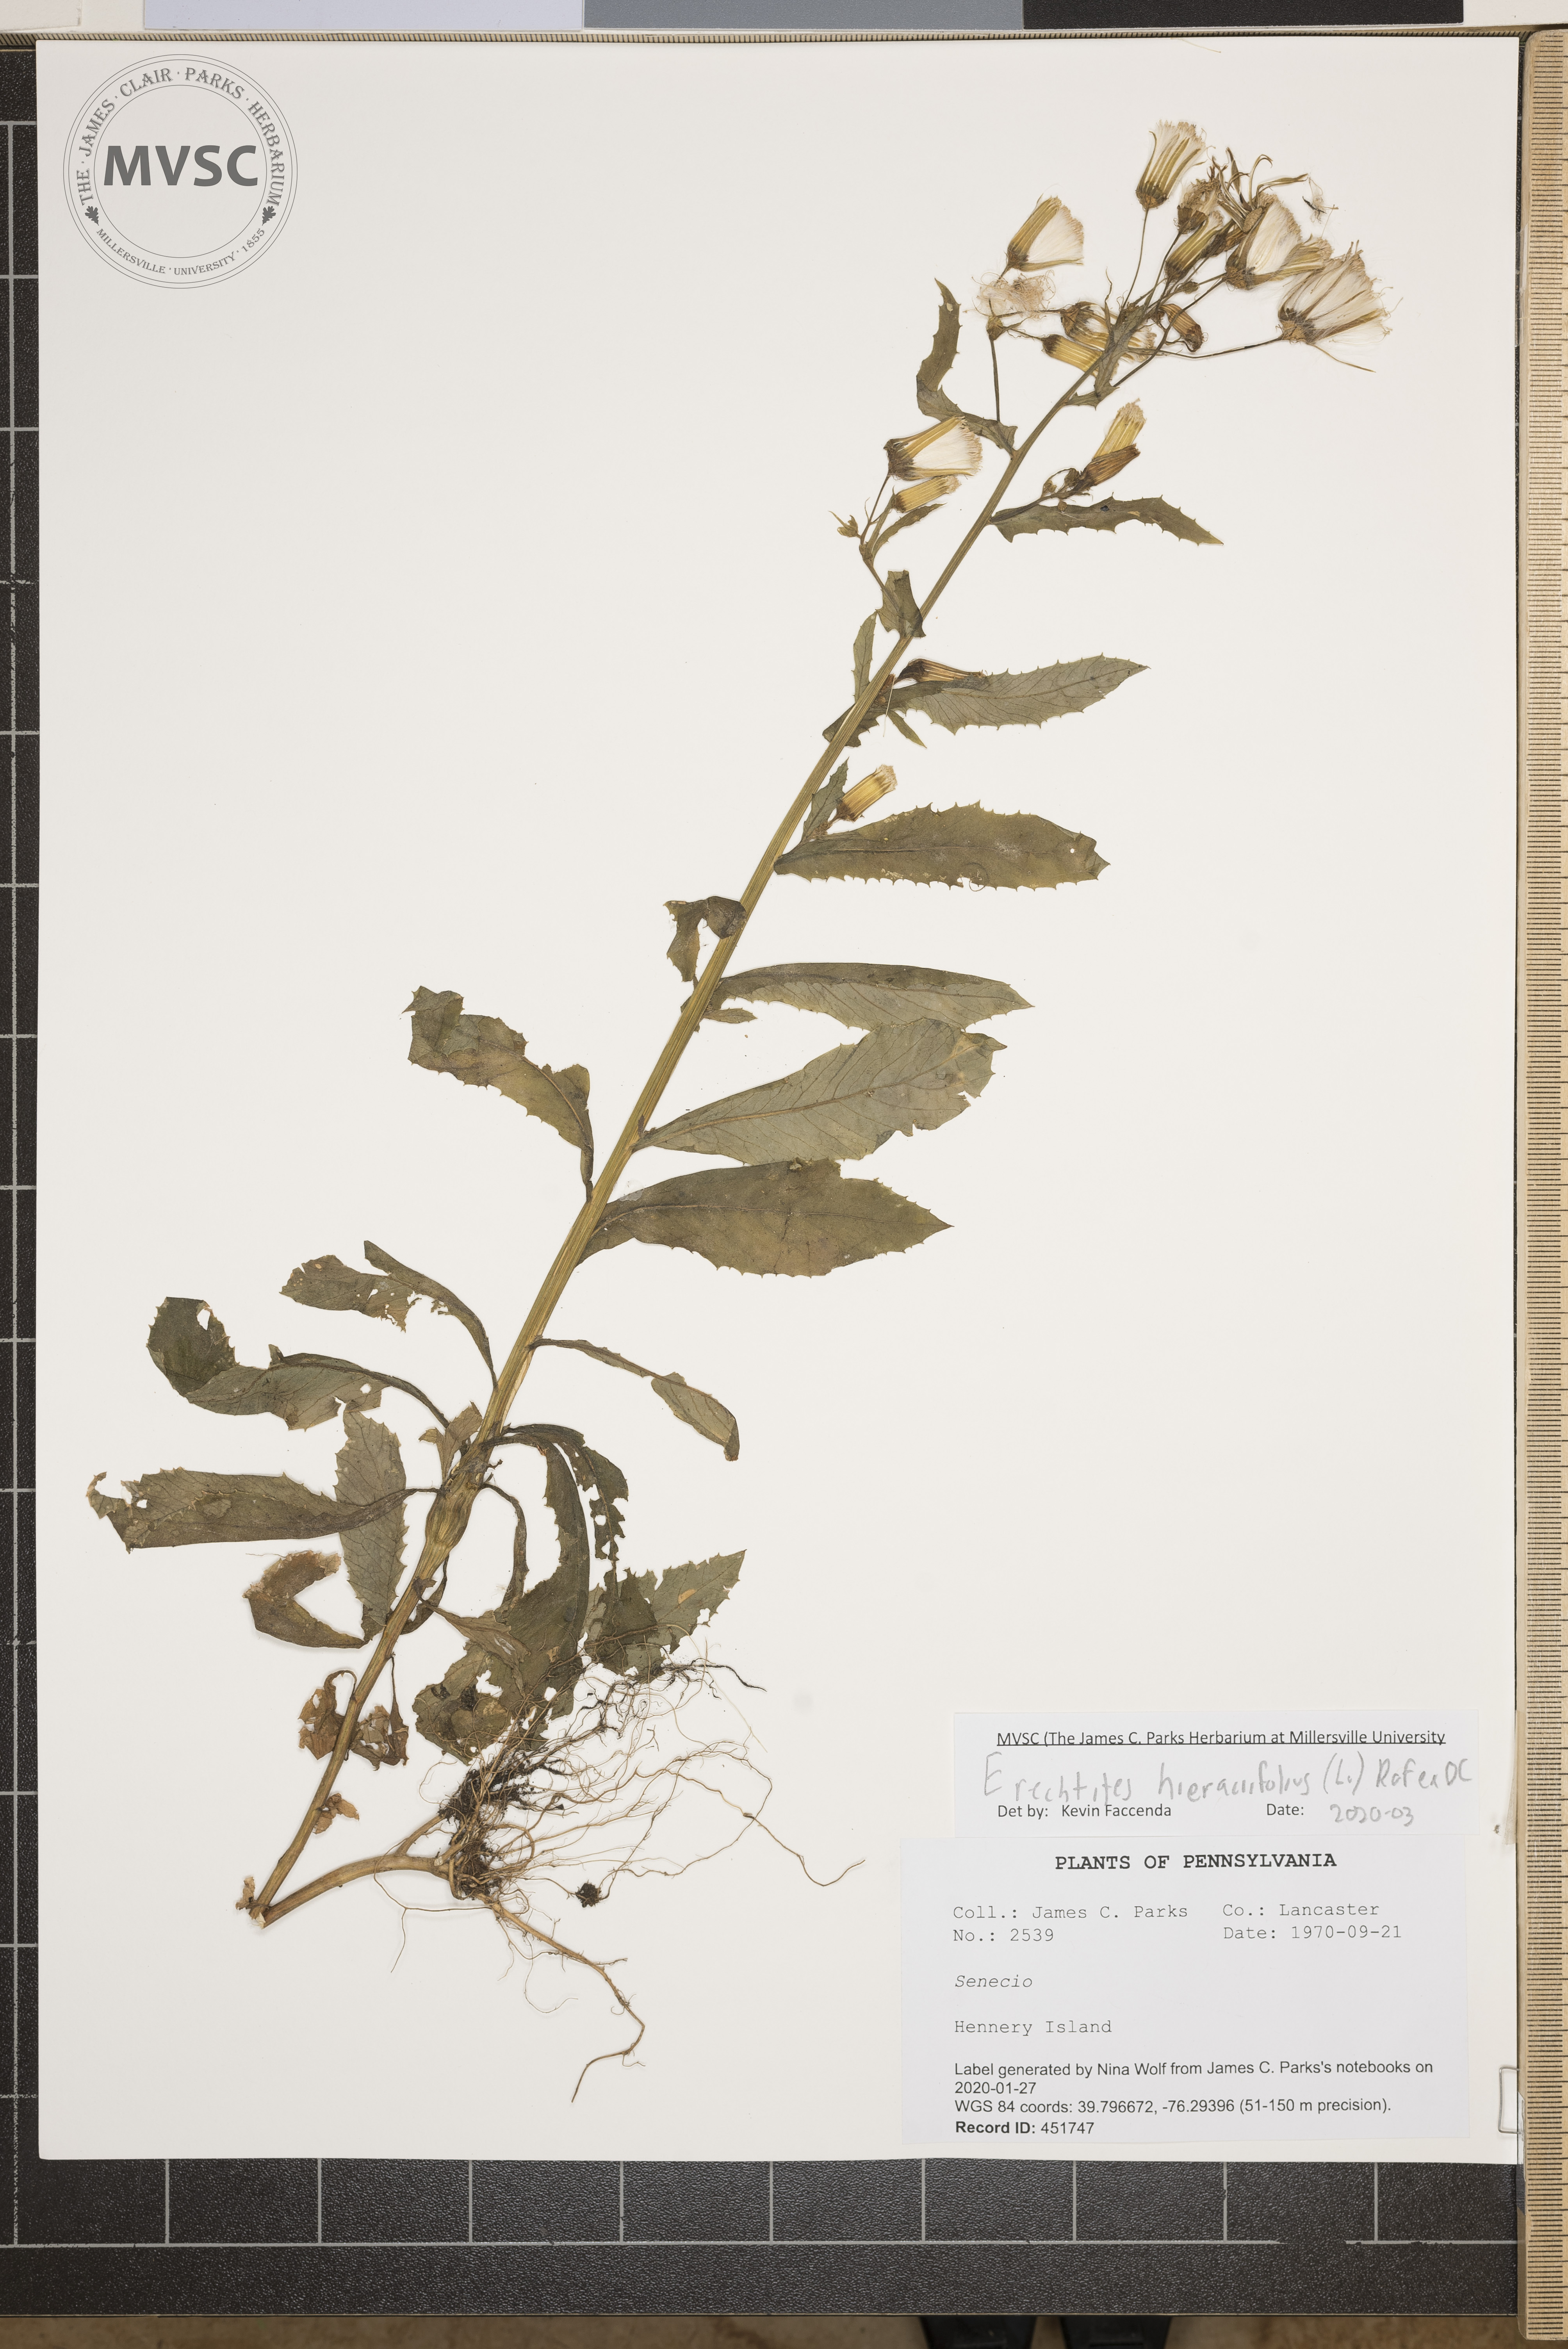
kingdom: Plantae
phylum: Tracheophyta
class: Magnoliopsida
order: Asterales
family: Asteraceae
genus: Erechtites
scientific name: Erechtites hieraciifolius
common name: American burnweed
